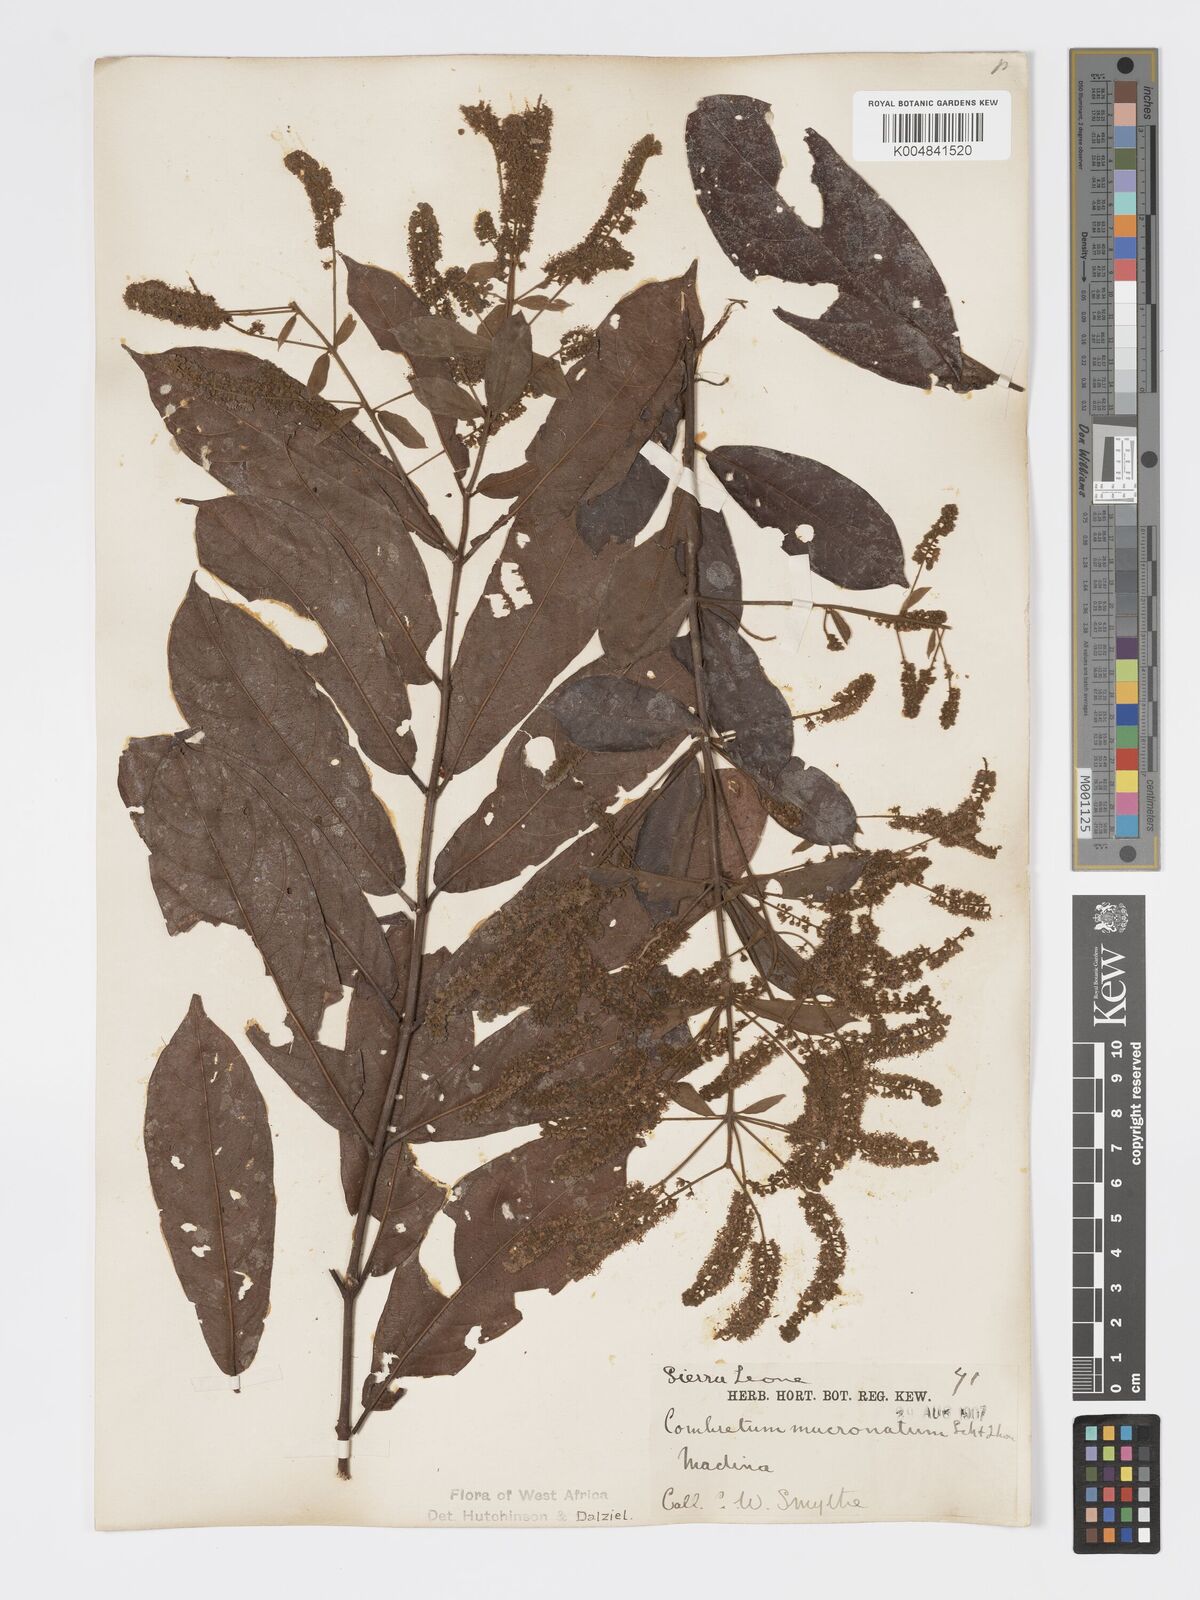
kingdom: Plantae
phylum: Tracheophyta
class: Magnoliopsida
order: Myrtales
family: Combretaceae
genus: Combretum
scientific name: Combretum mucronatum
